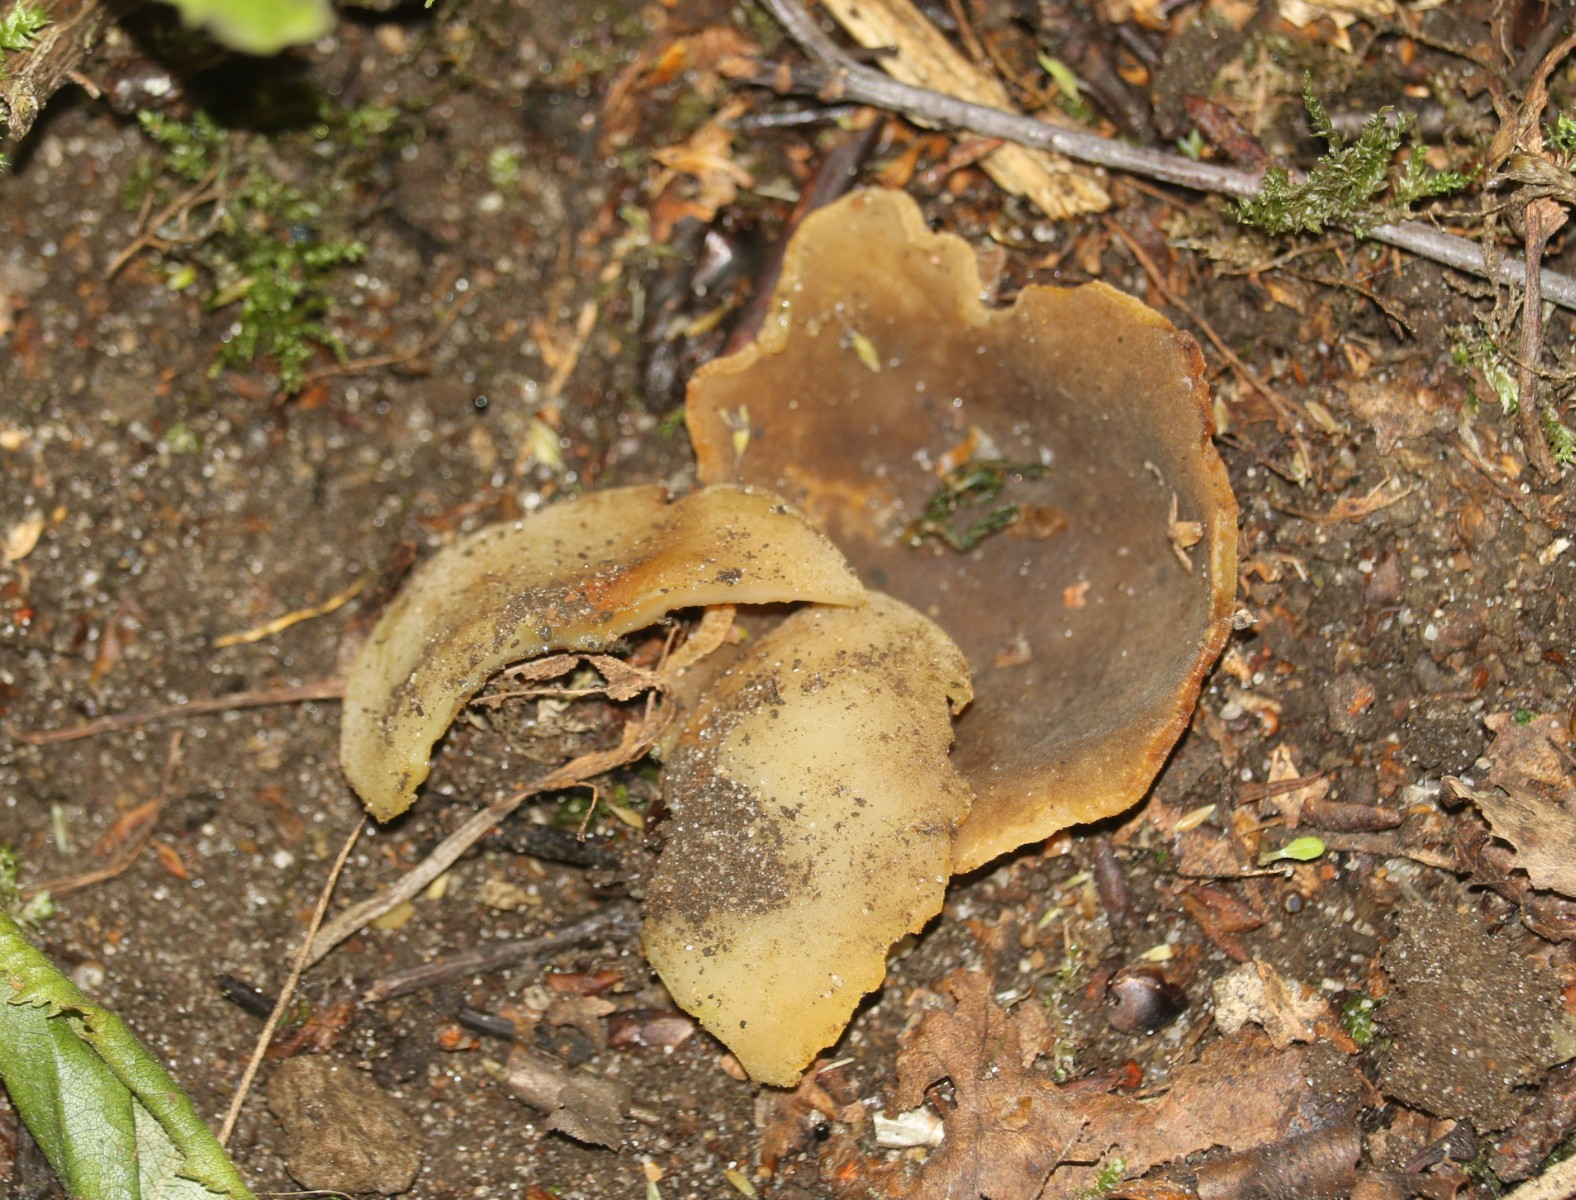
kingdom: Fungi
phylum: Ascomycota
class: Pezizomycetes
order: Pezizales
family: Pezizaceae
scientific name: Pezizaceae
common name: bægersvampfamilien
